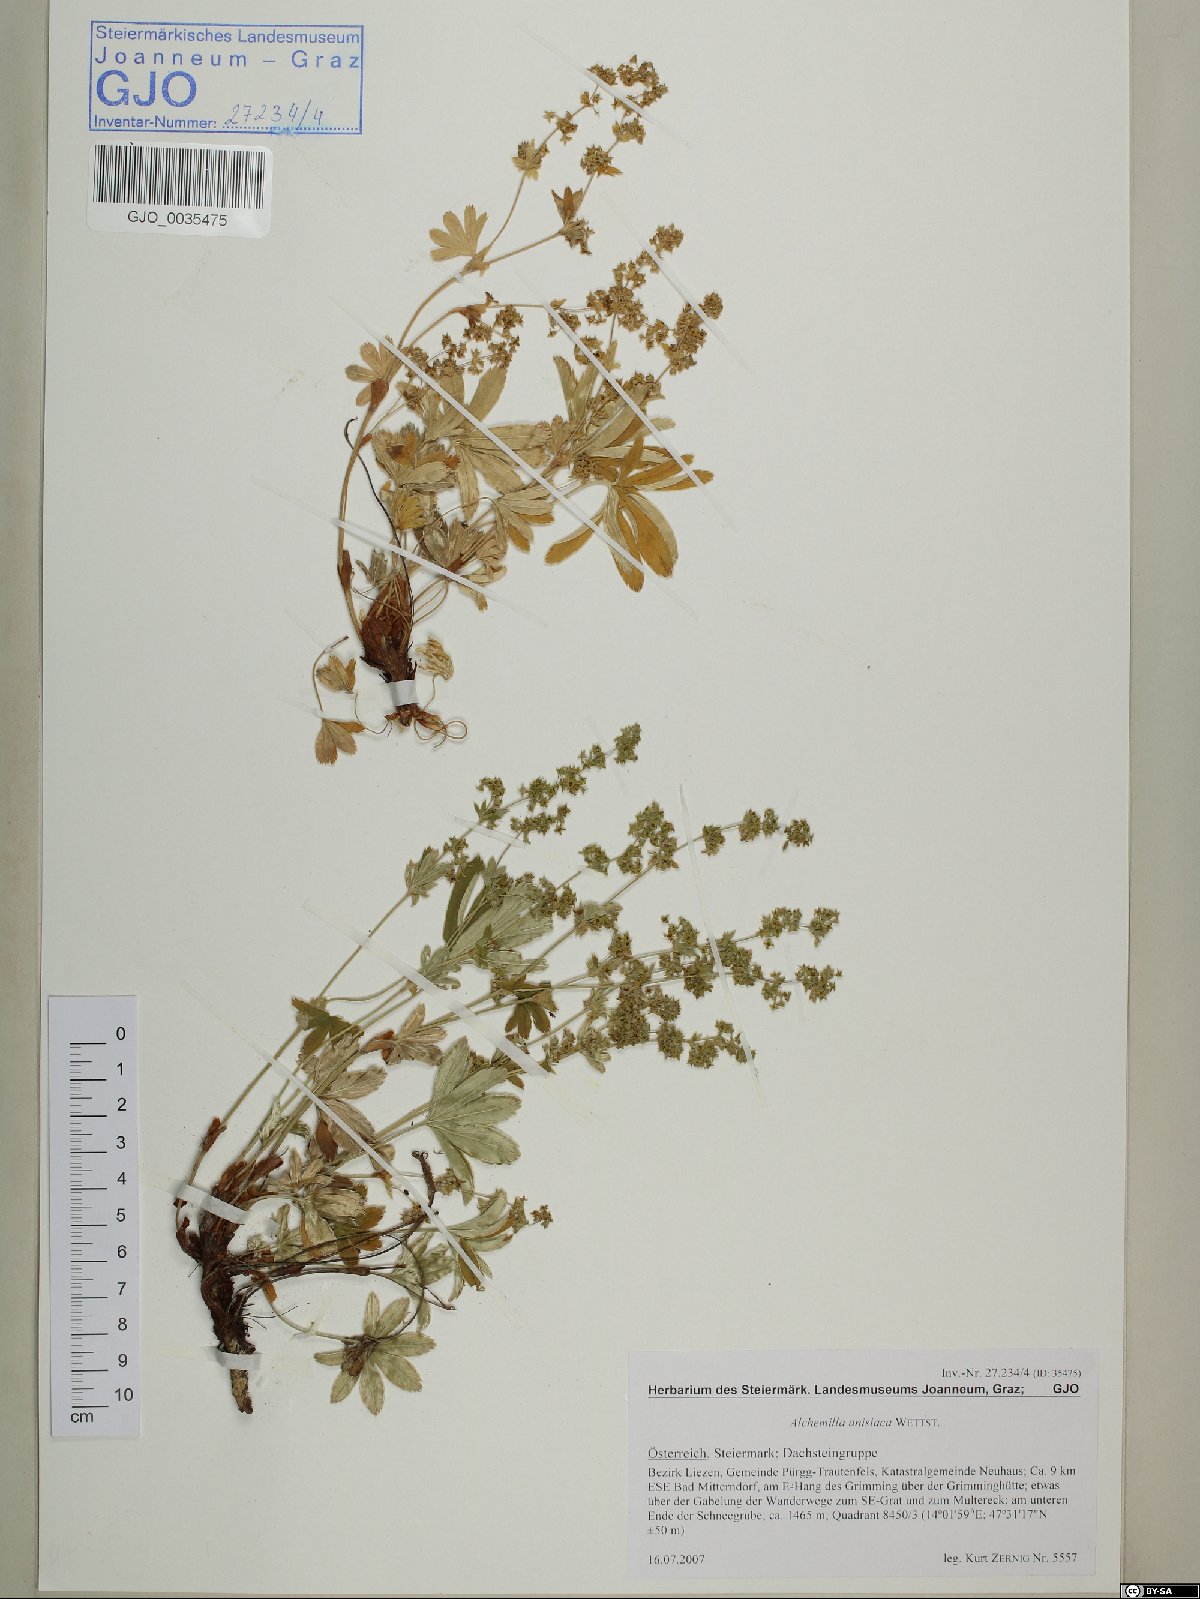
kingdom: Plantae
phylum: Tracheophyta
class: Magnoliopsida
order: Rosales
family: Rosaceae
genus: Alchemilla
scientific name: Alchemilla anisiaca
